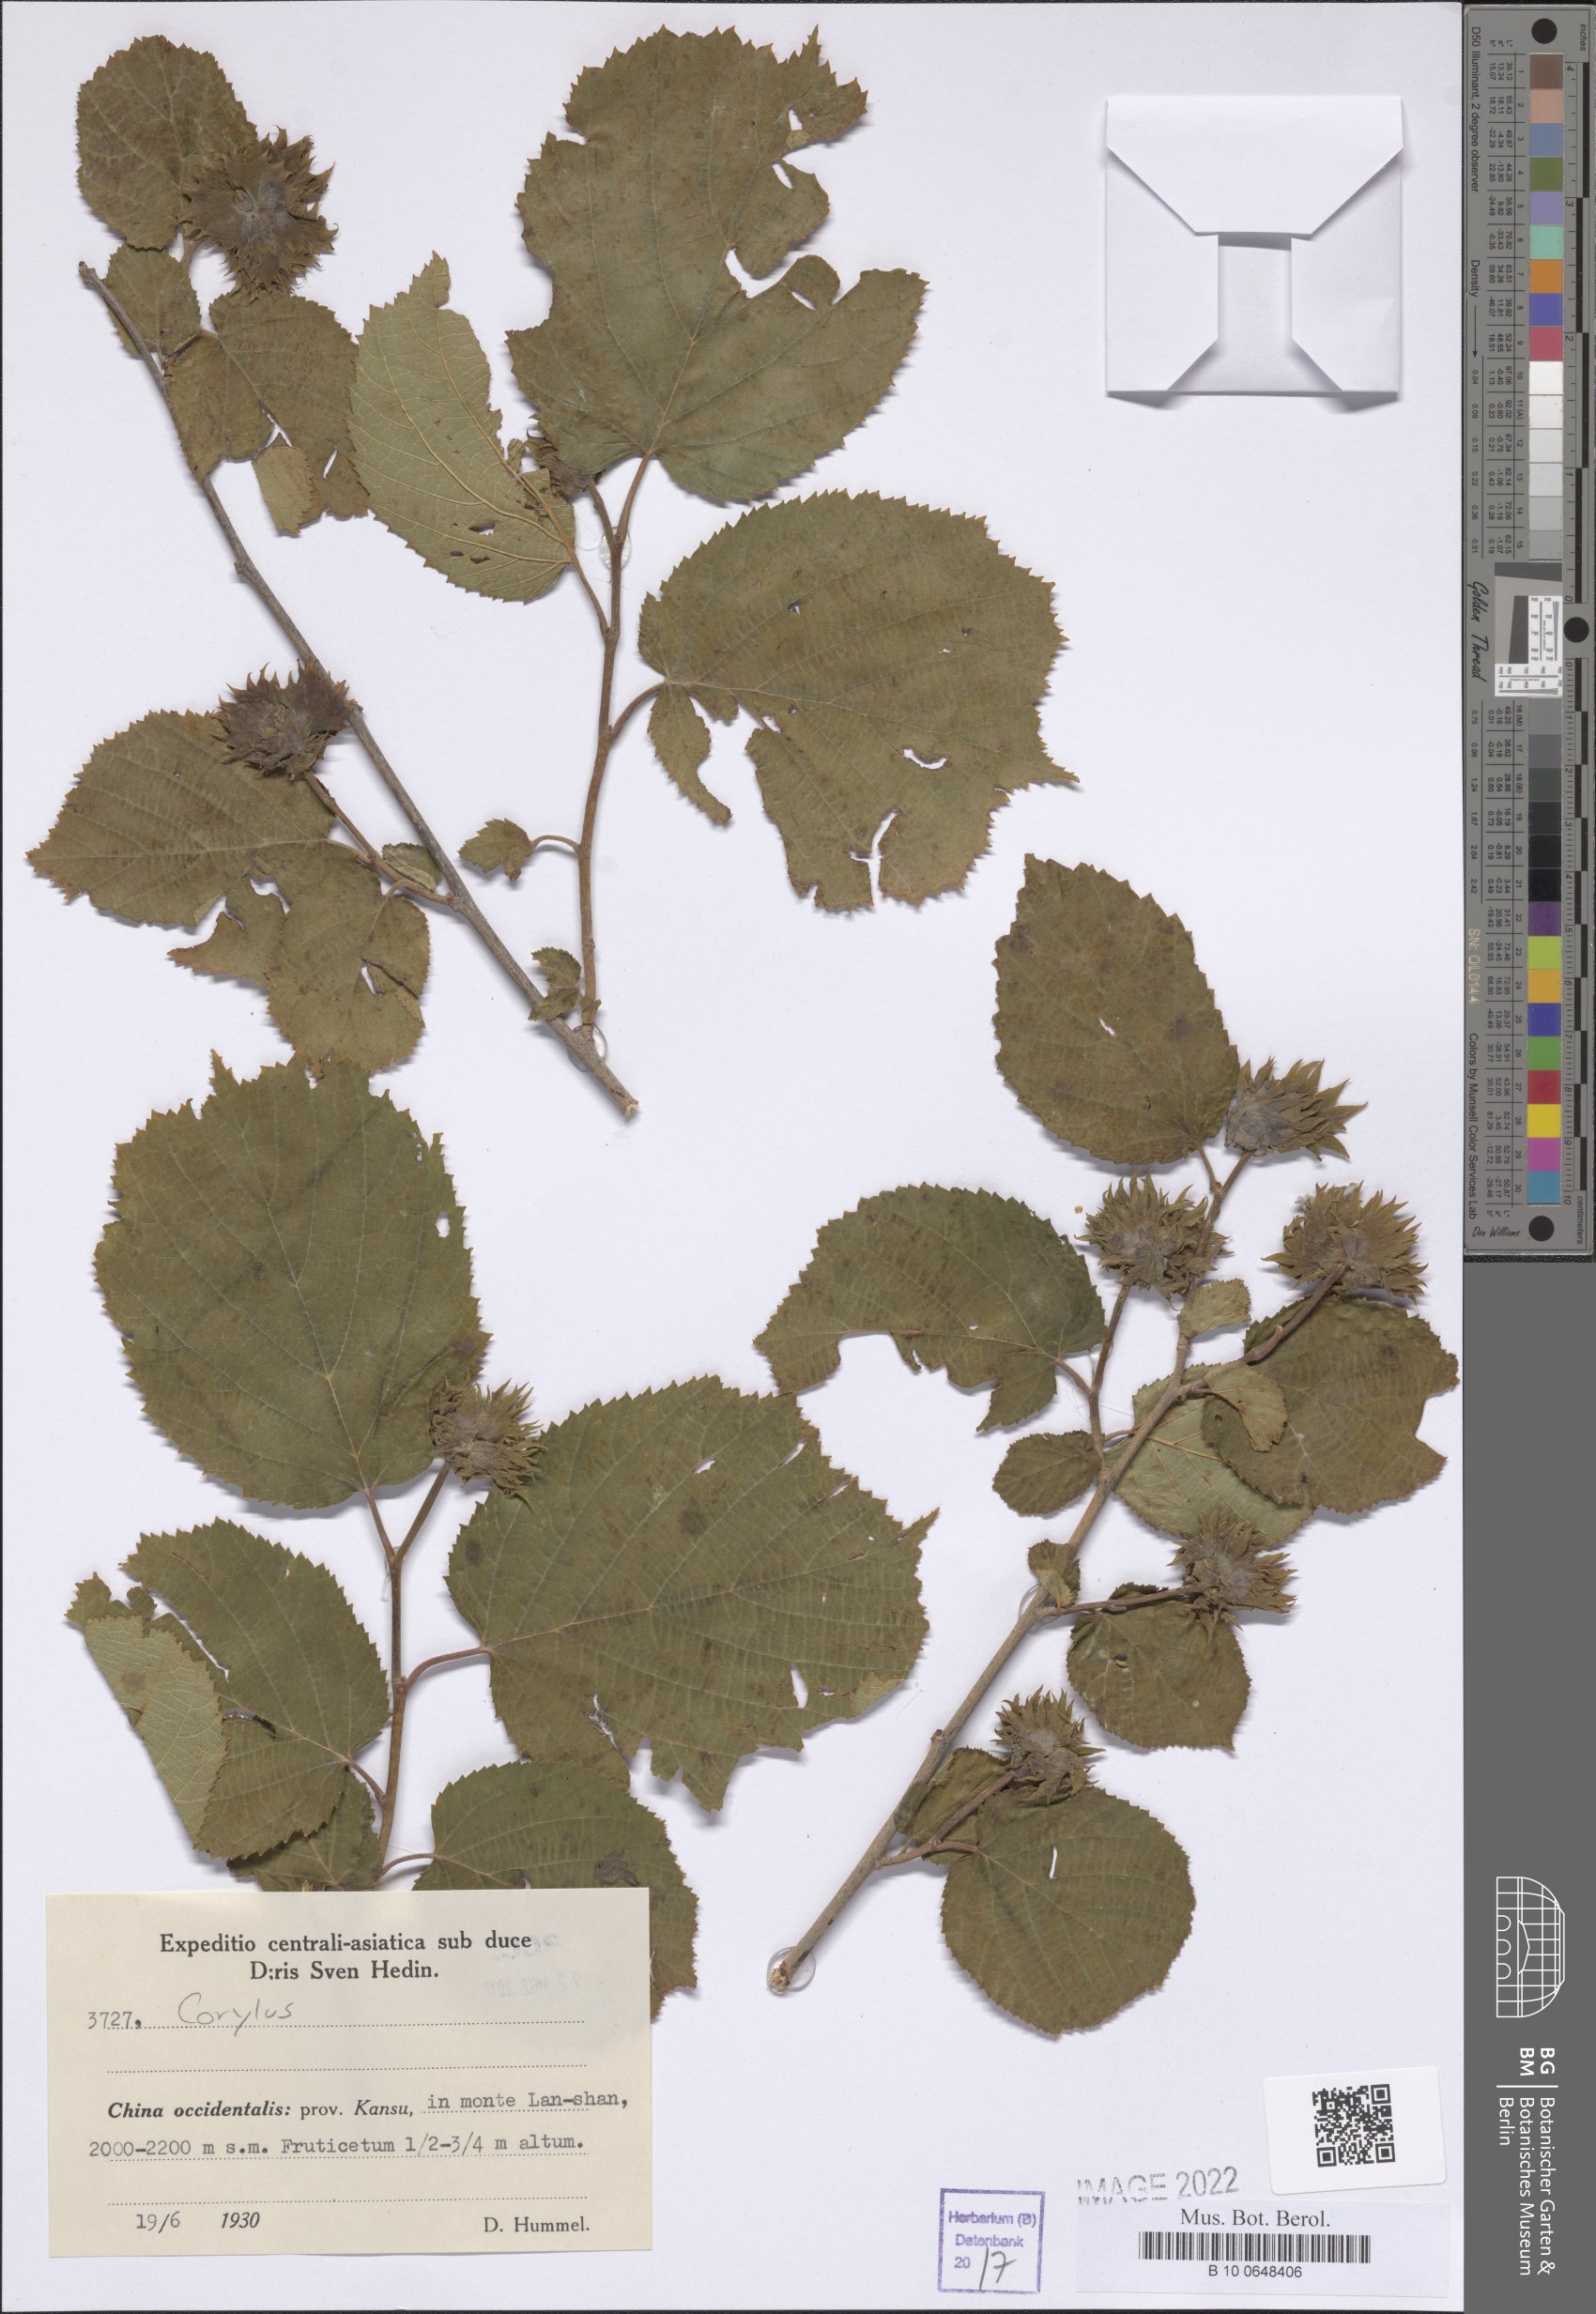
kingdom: Plantae
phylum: Tracheophyta
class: Magnoliopsida
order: Fagales
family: Betulaceae
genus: Corylus
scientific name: Corylus
